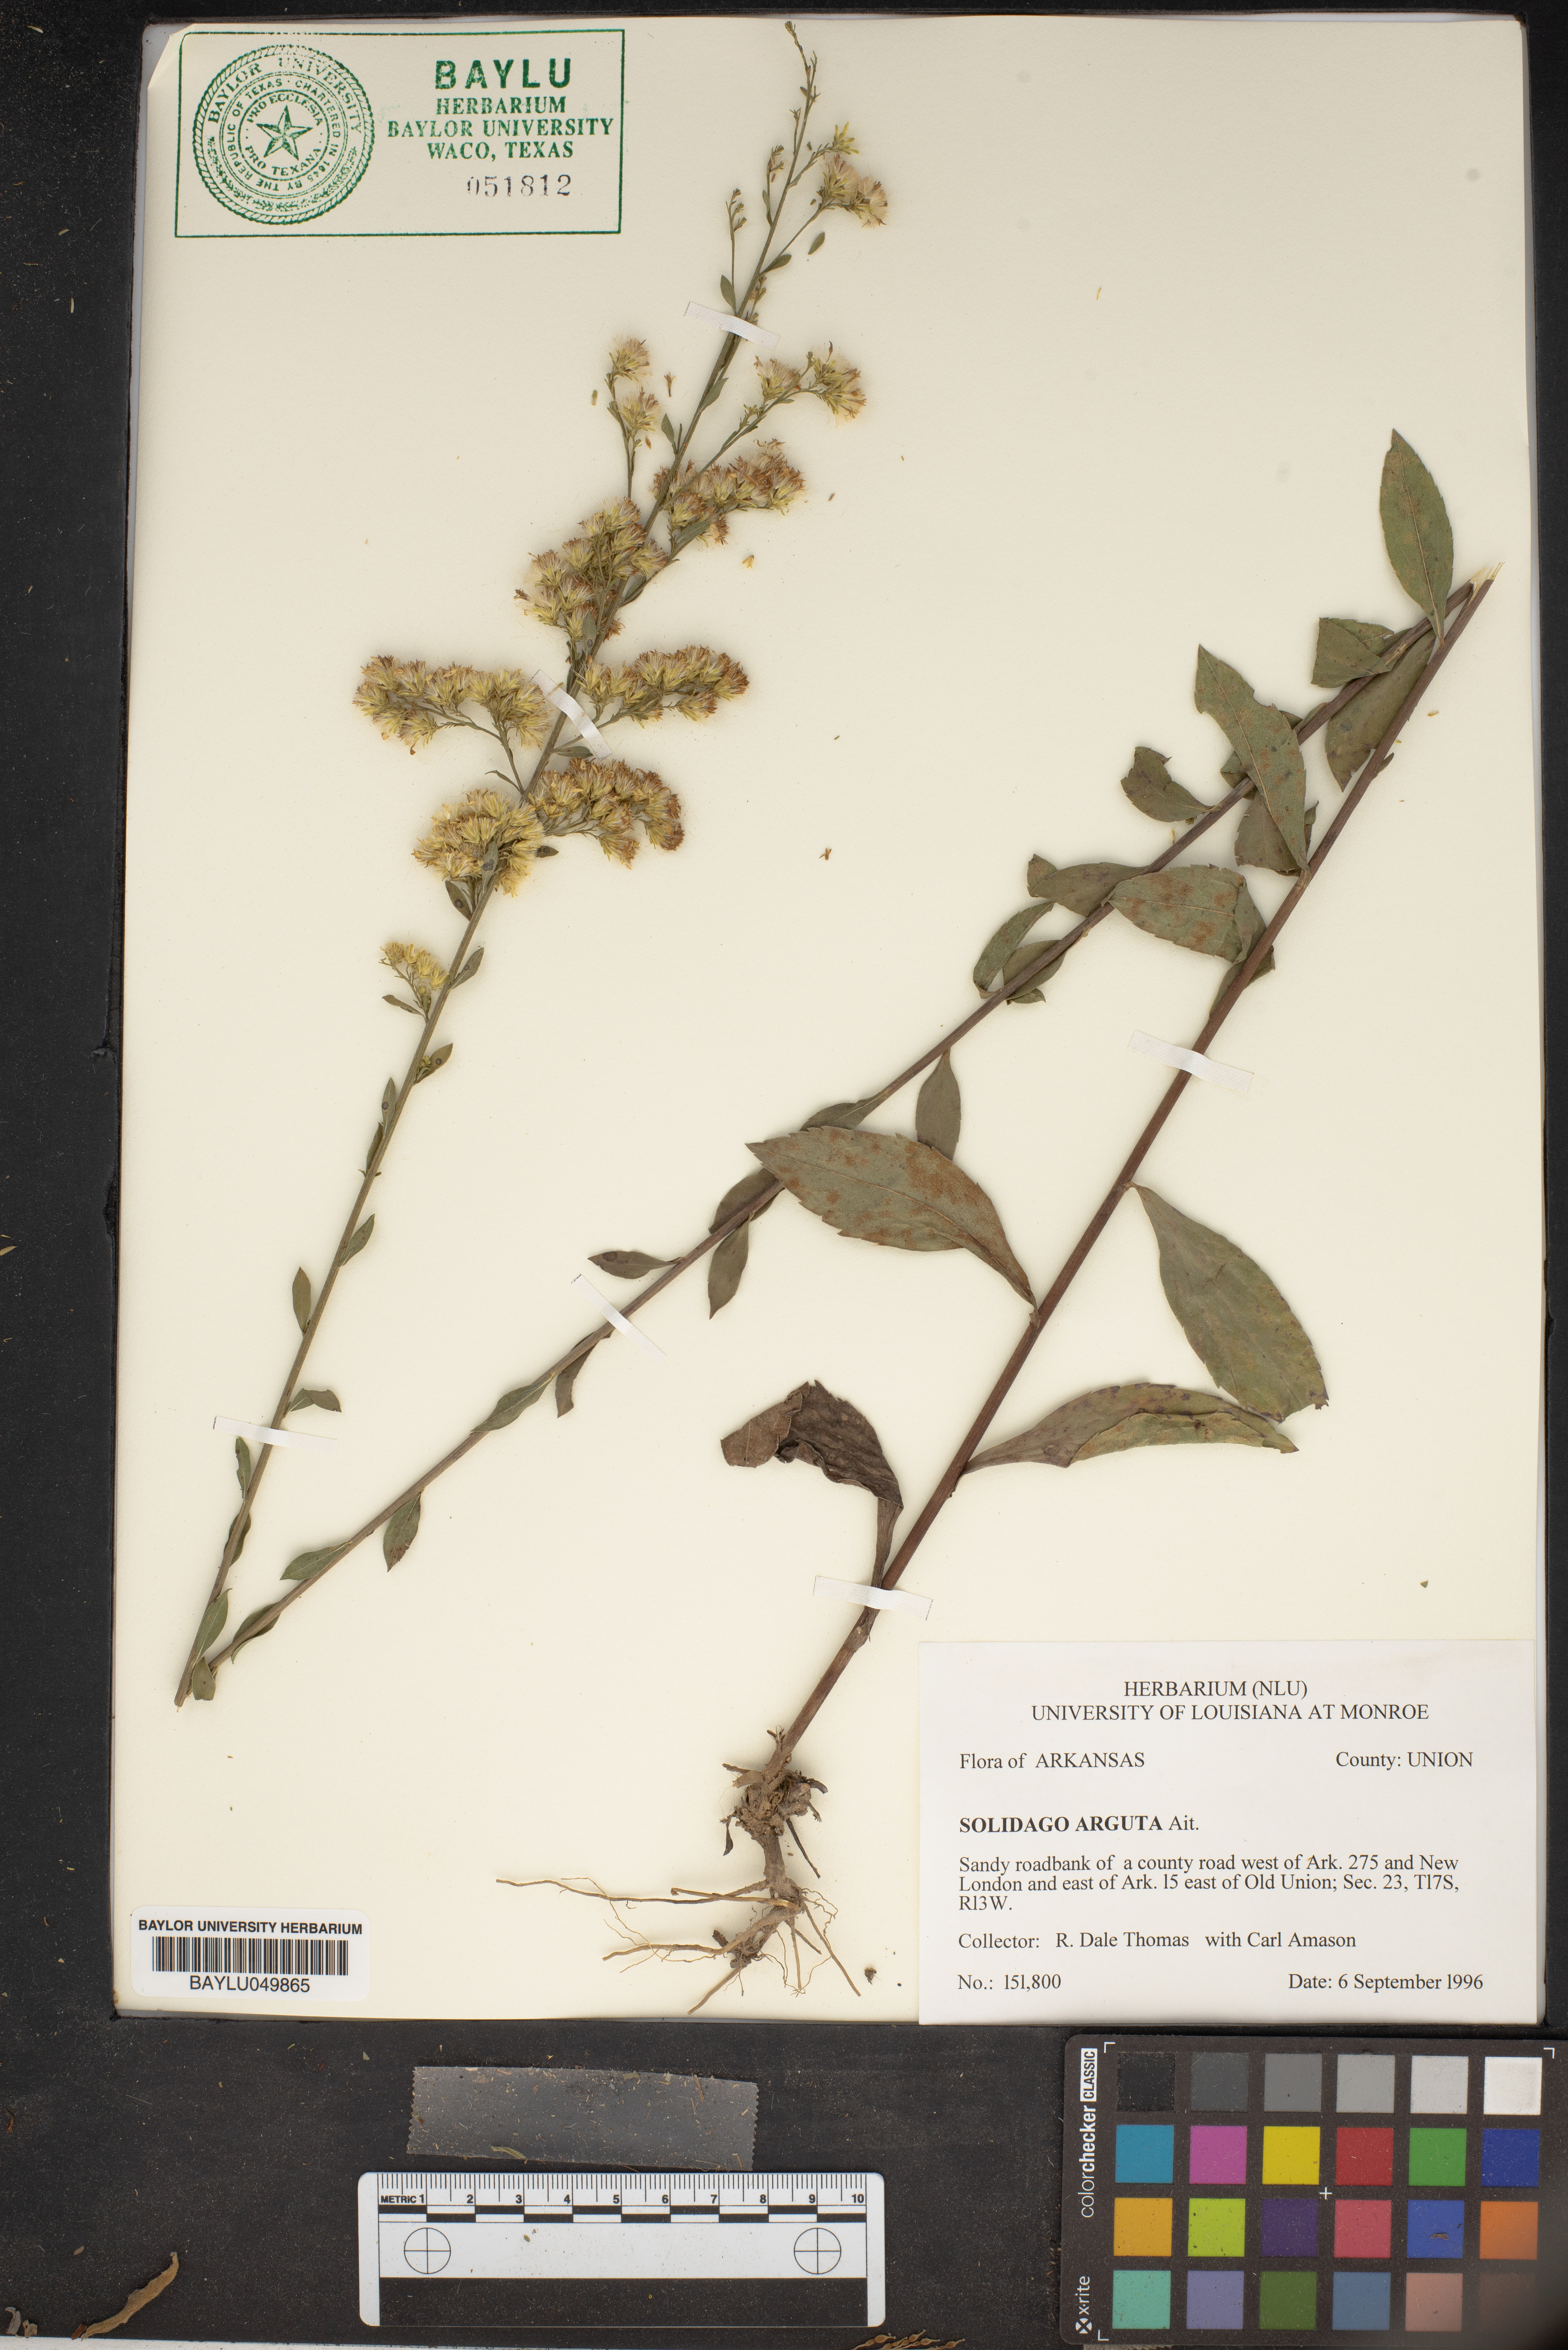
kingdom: Plantae
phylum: Tracheophyta
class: Magnoliopsida
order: Asterales
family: Asteraceae
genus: Solidago
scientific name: Solidago arguta
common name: Atlantic goldenrod
